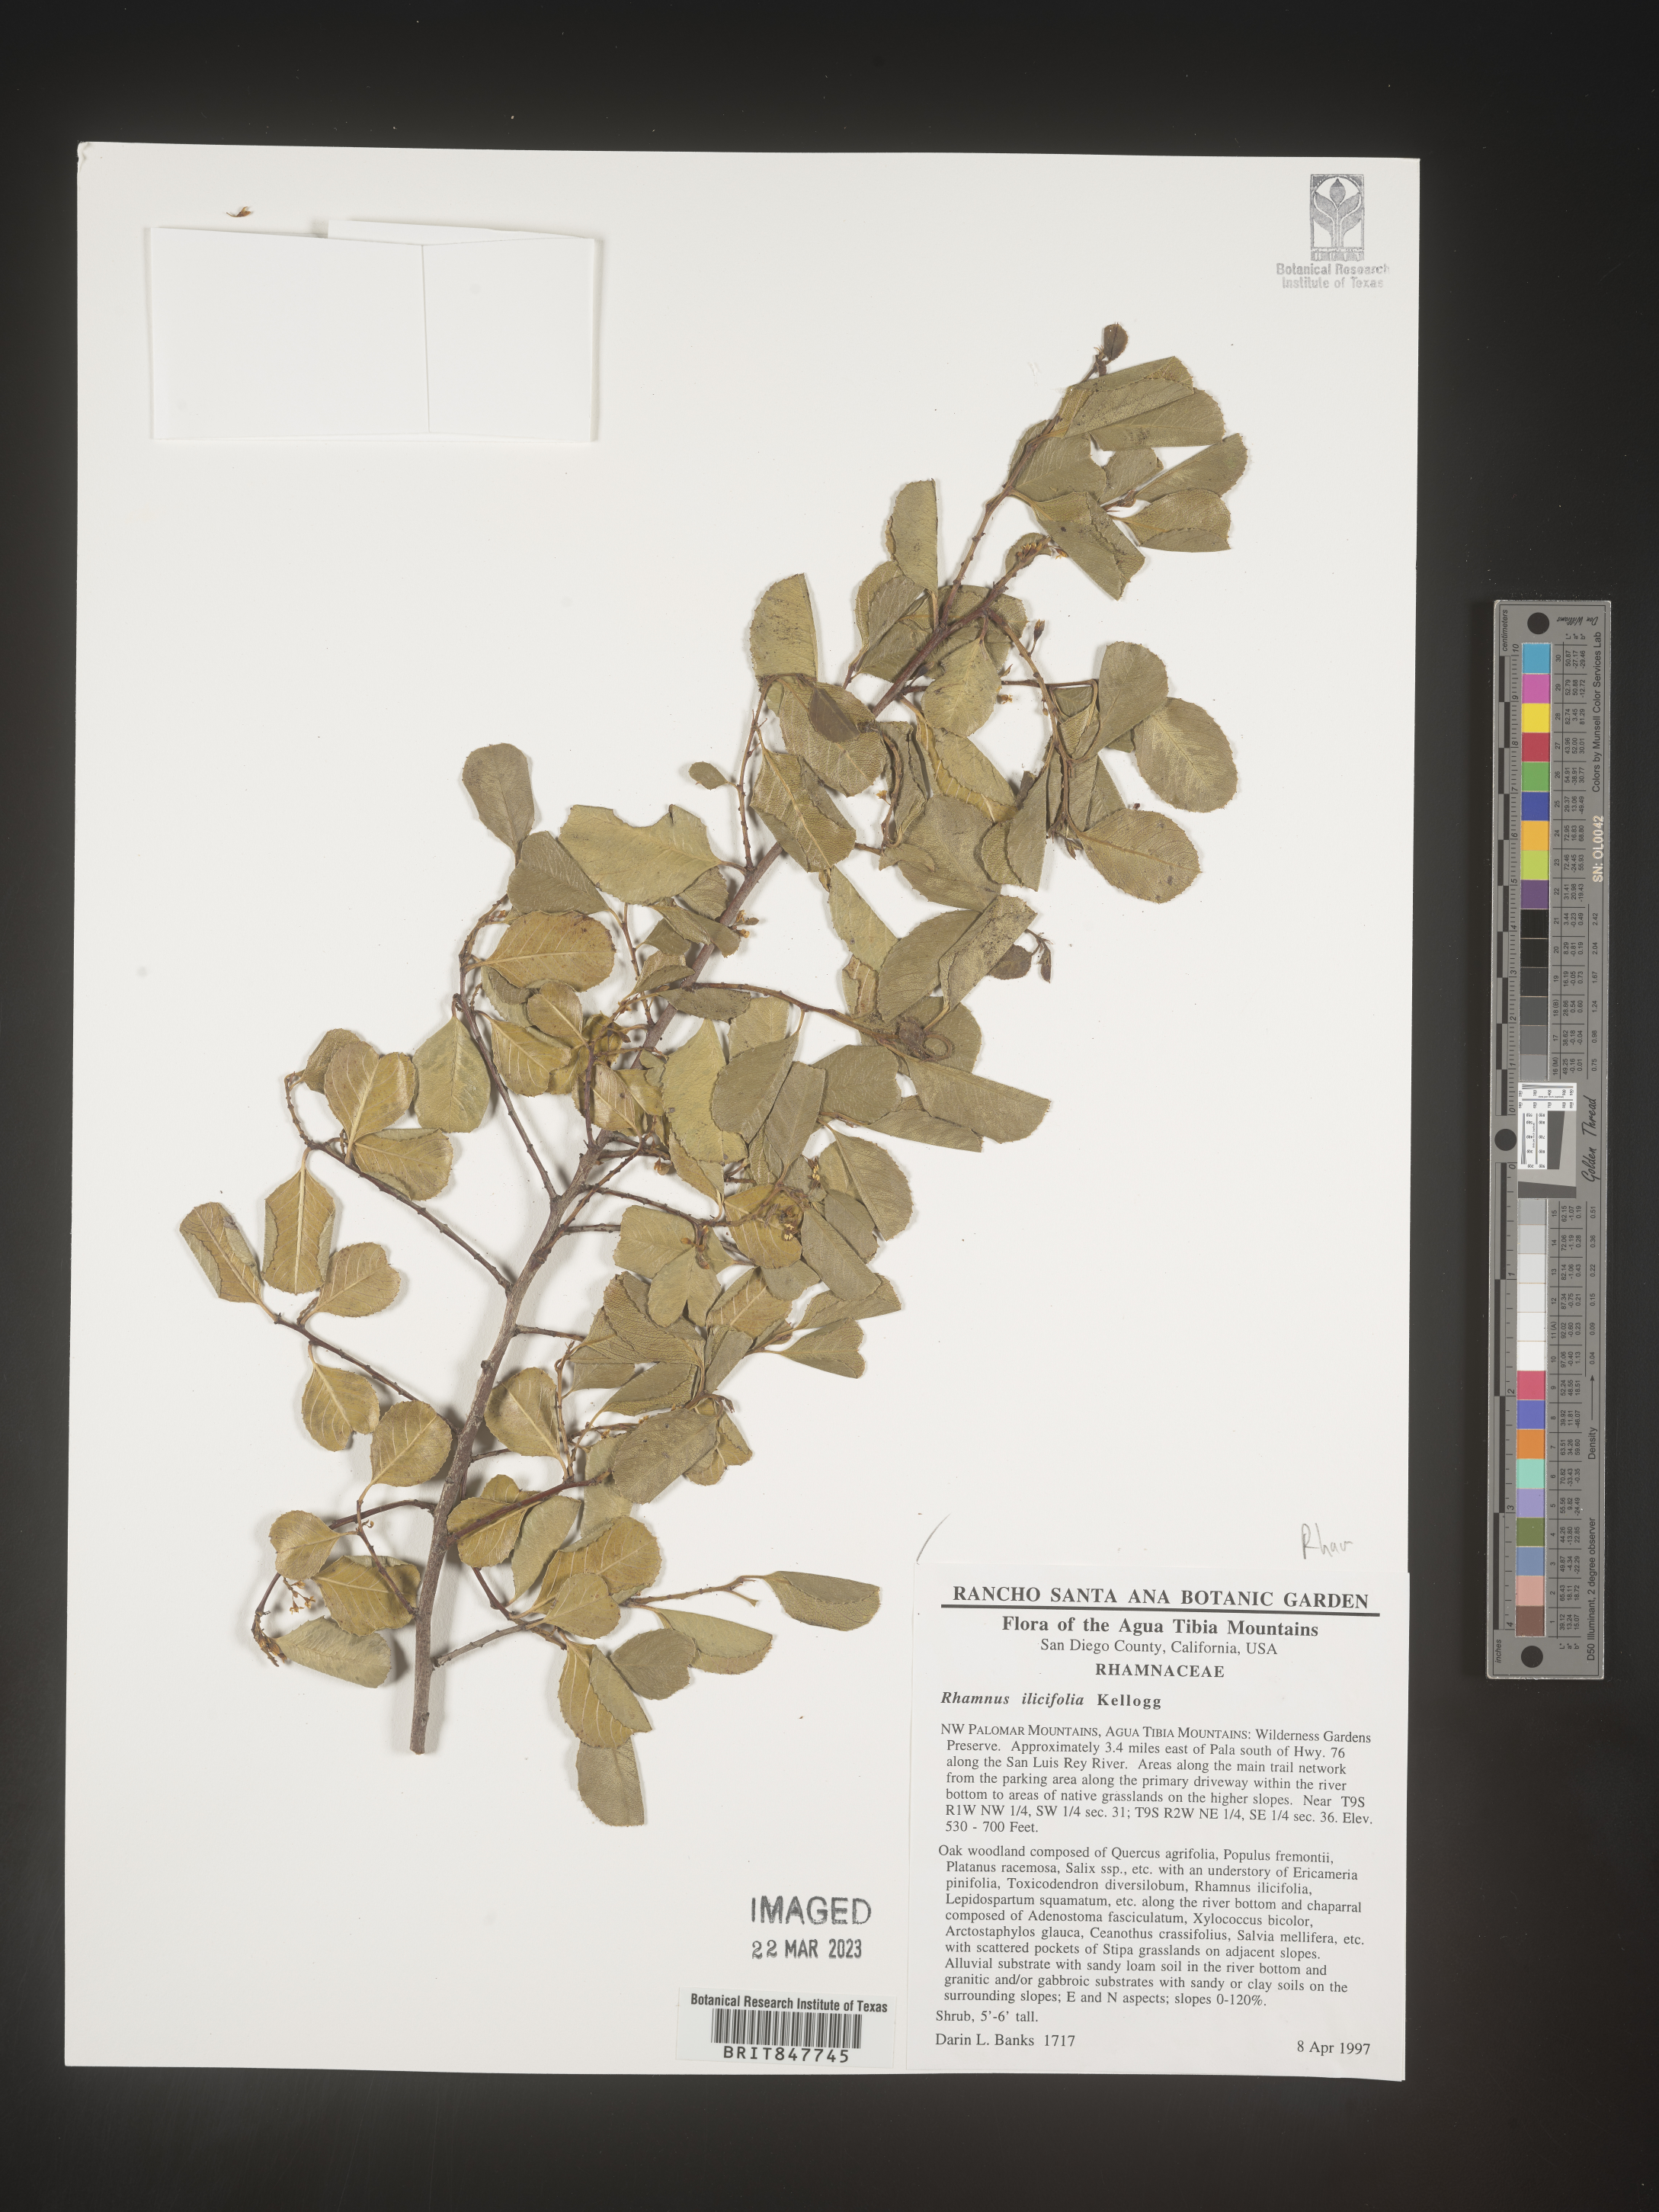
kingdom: Plantae
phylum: Tracheophyta
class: Magnoliopsida
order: Rosales
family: Rhamnaceae
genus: Endotropis
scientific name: Endotropis crocea
